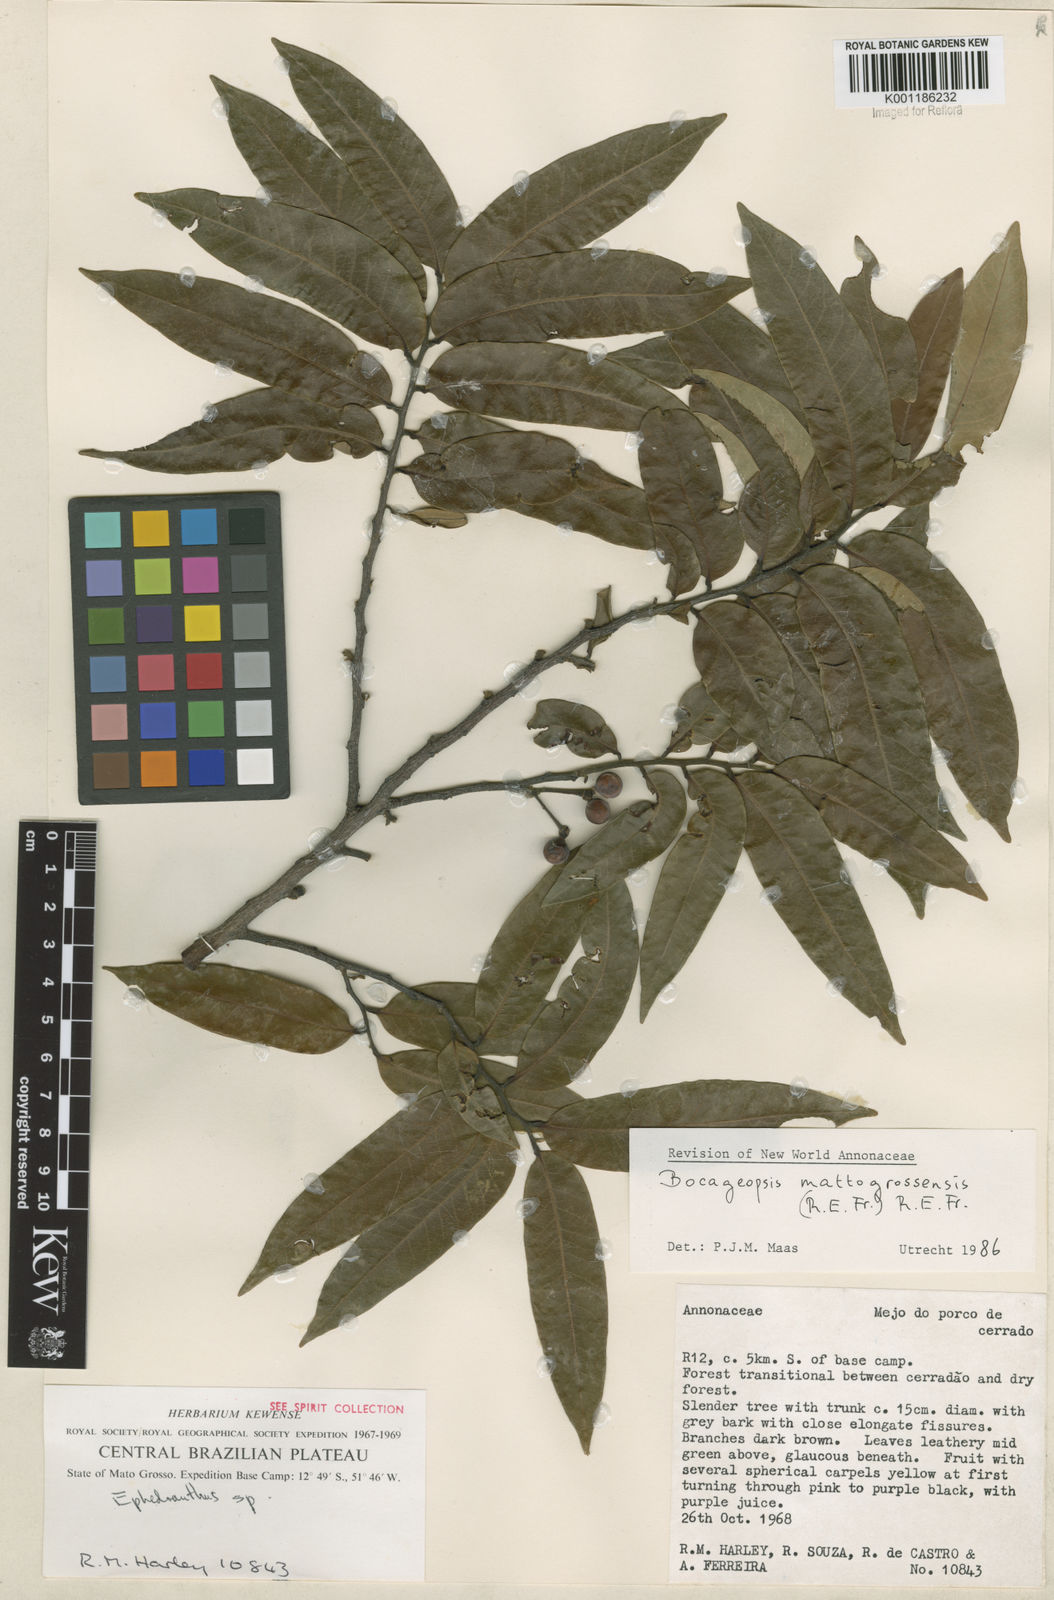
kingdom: Plantae
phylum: Tracheophyta
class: Magnoliopsida
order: Magnoliales
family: Annonaceae
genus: Bocageopsis
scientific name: Bocageopsis mattogrossensis
